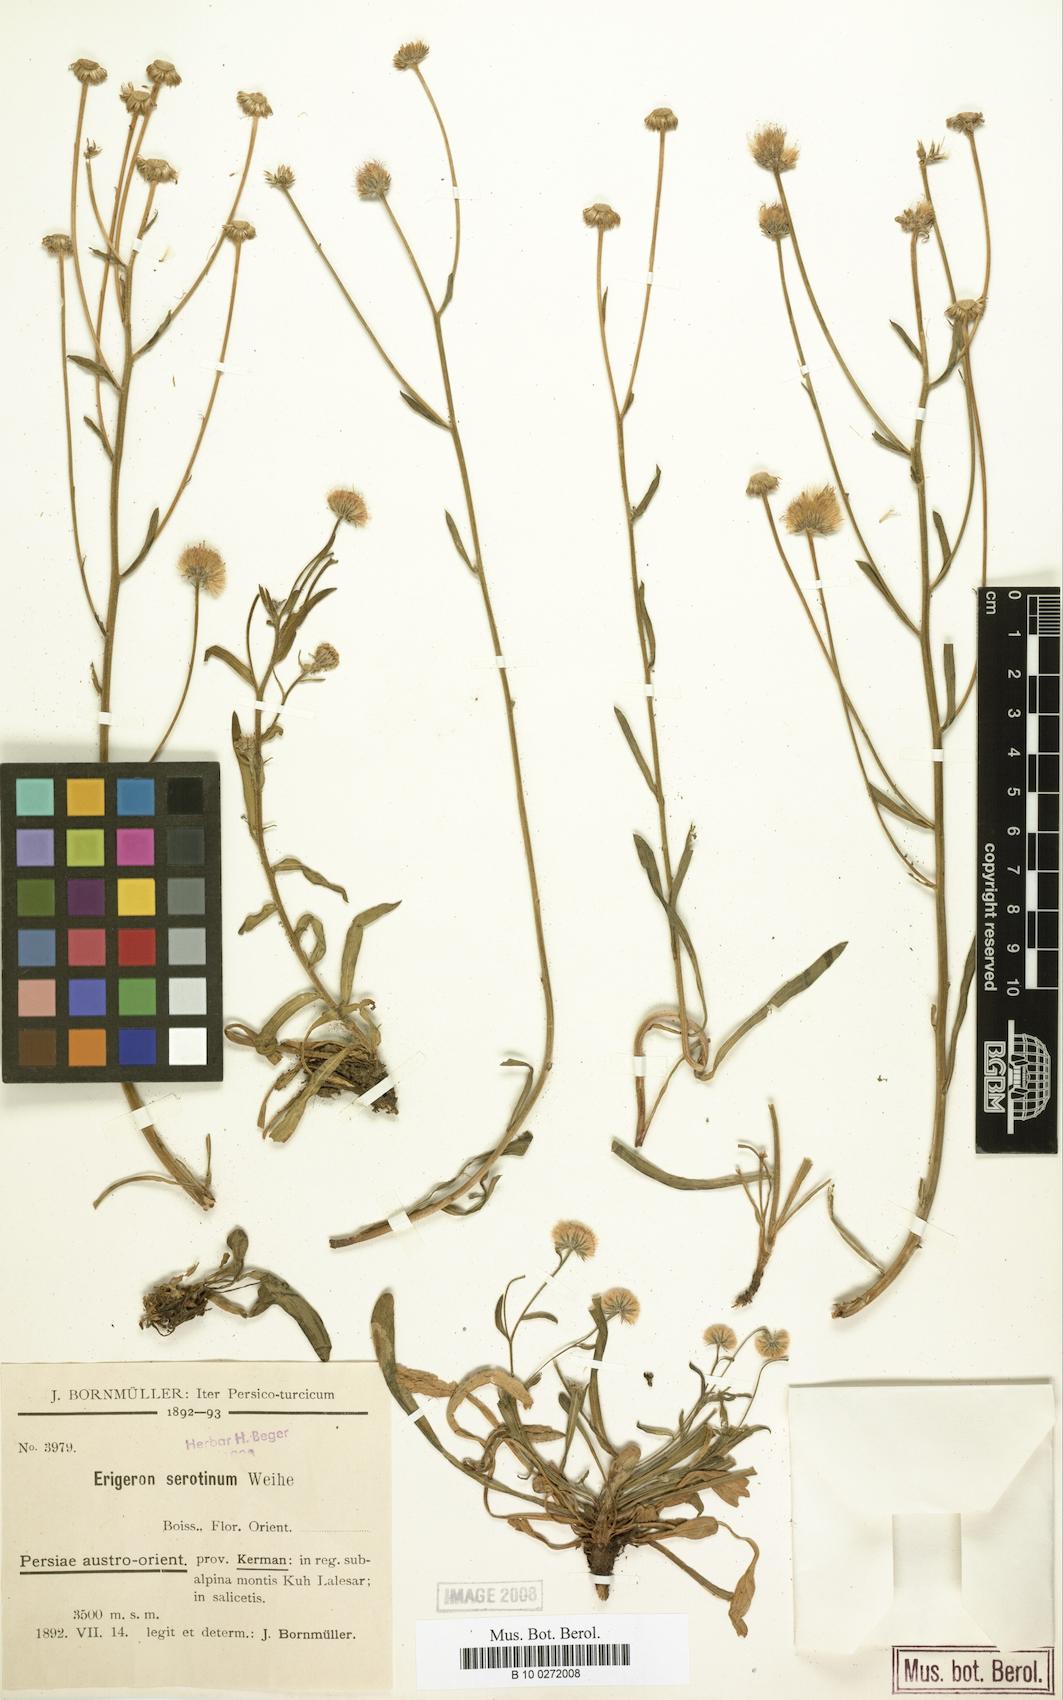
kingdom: Plantae
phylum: Tracheophyta
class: Magnoliopsida
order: Asterales
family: Asteraceae
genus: Erigeron
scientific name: Erigeron lalehzaricus
